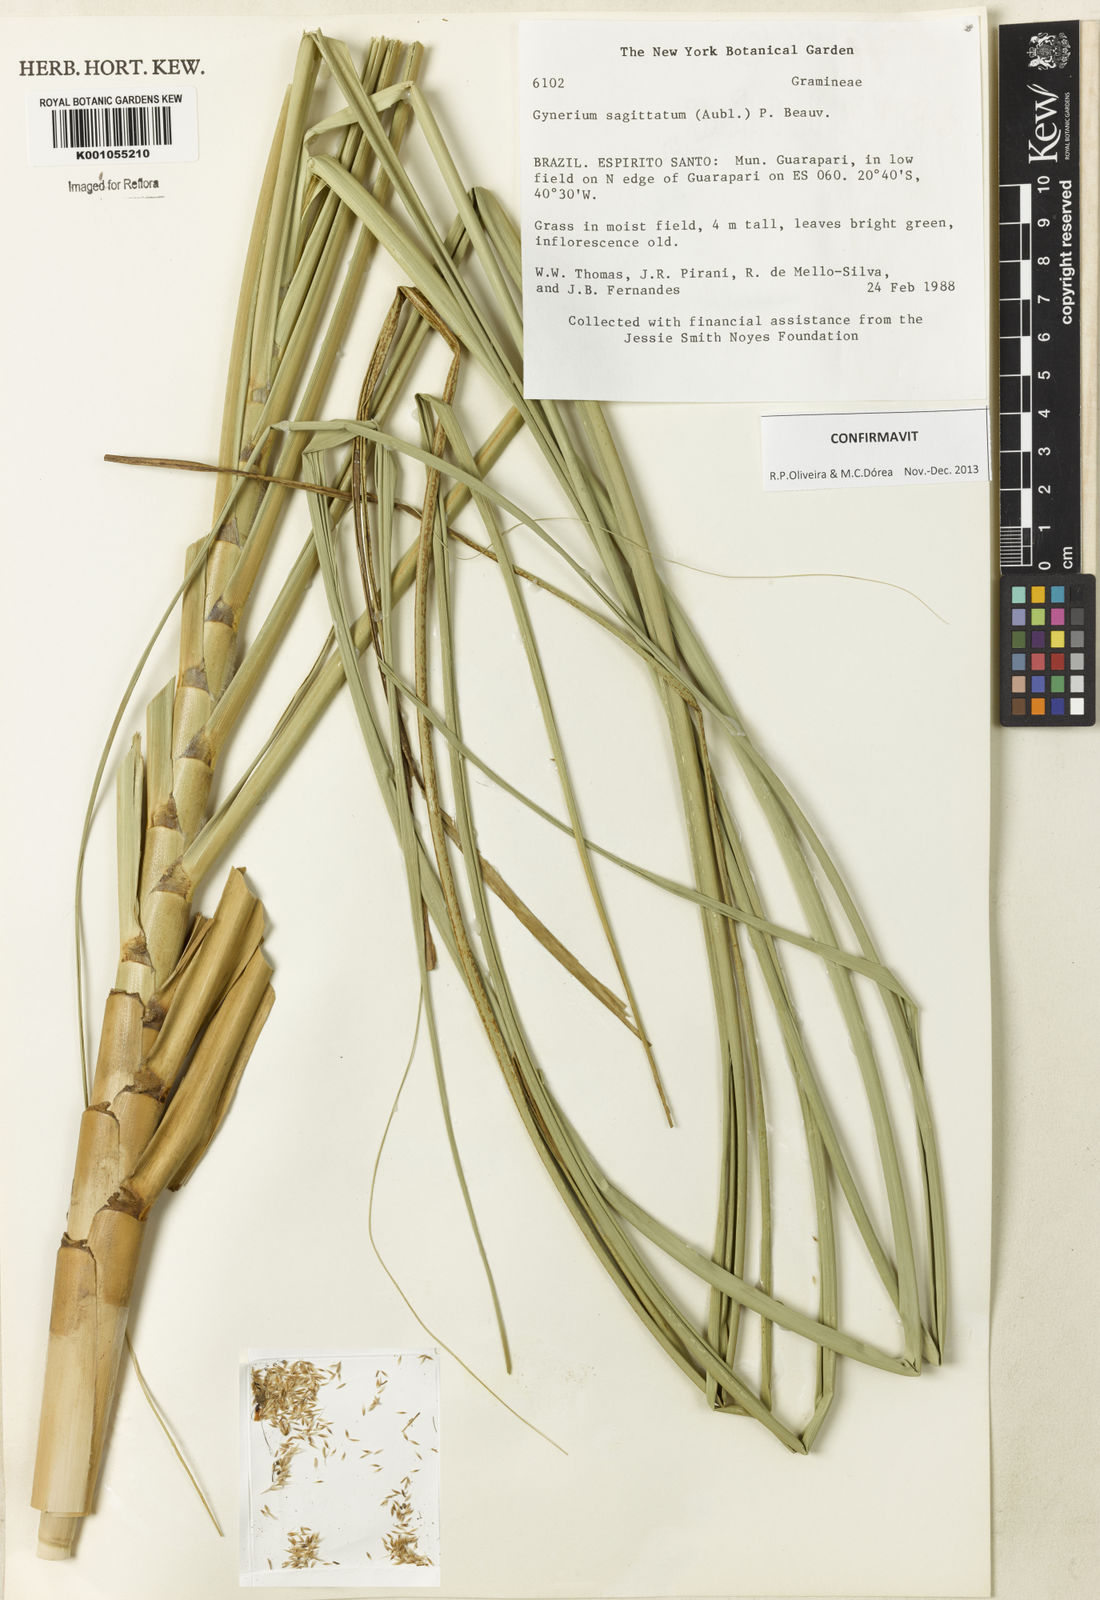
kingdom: Plantae
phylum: Tracheophyta
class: Liliopsida
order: Poales
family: Poaceae
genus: Gynerium
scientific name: Gynerium sagittatum
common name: Wild cane
